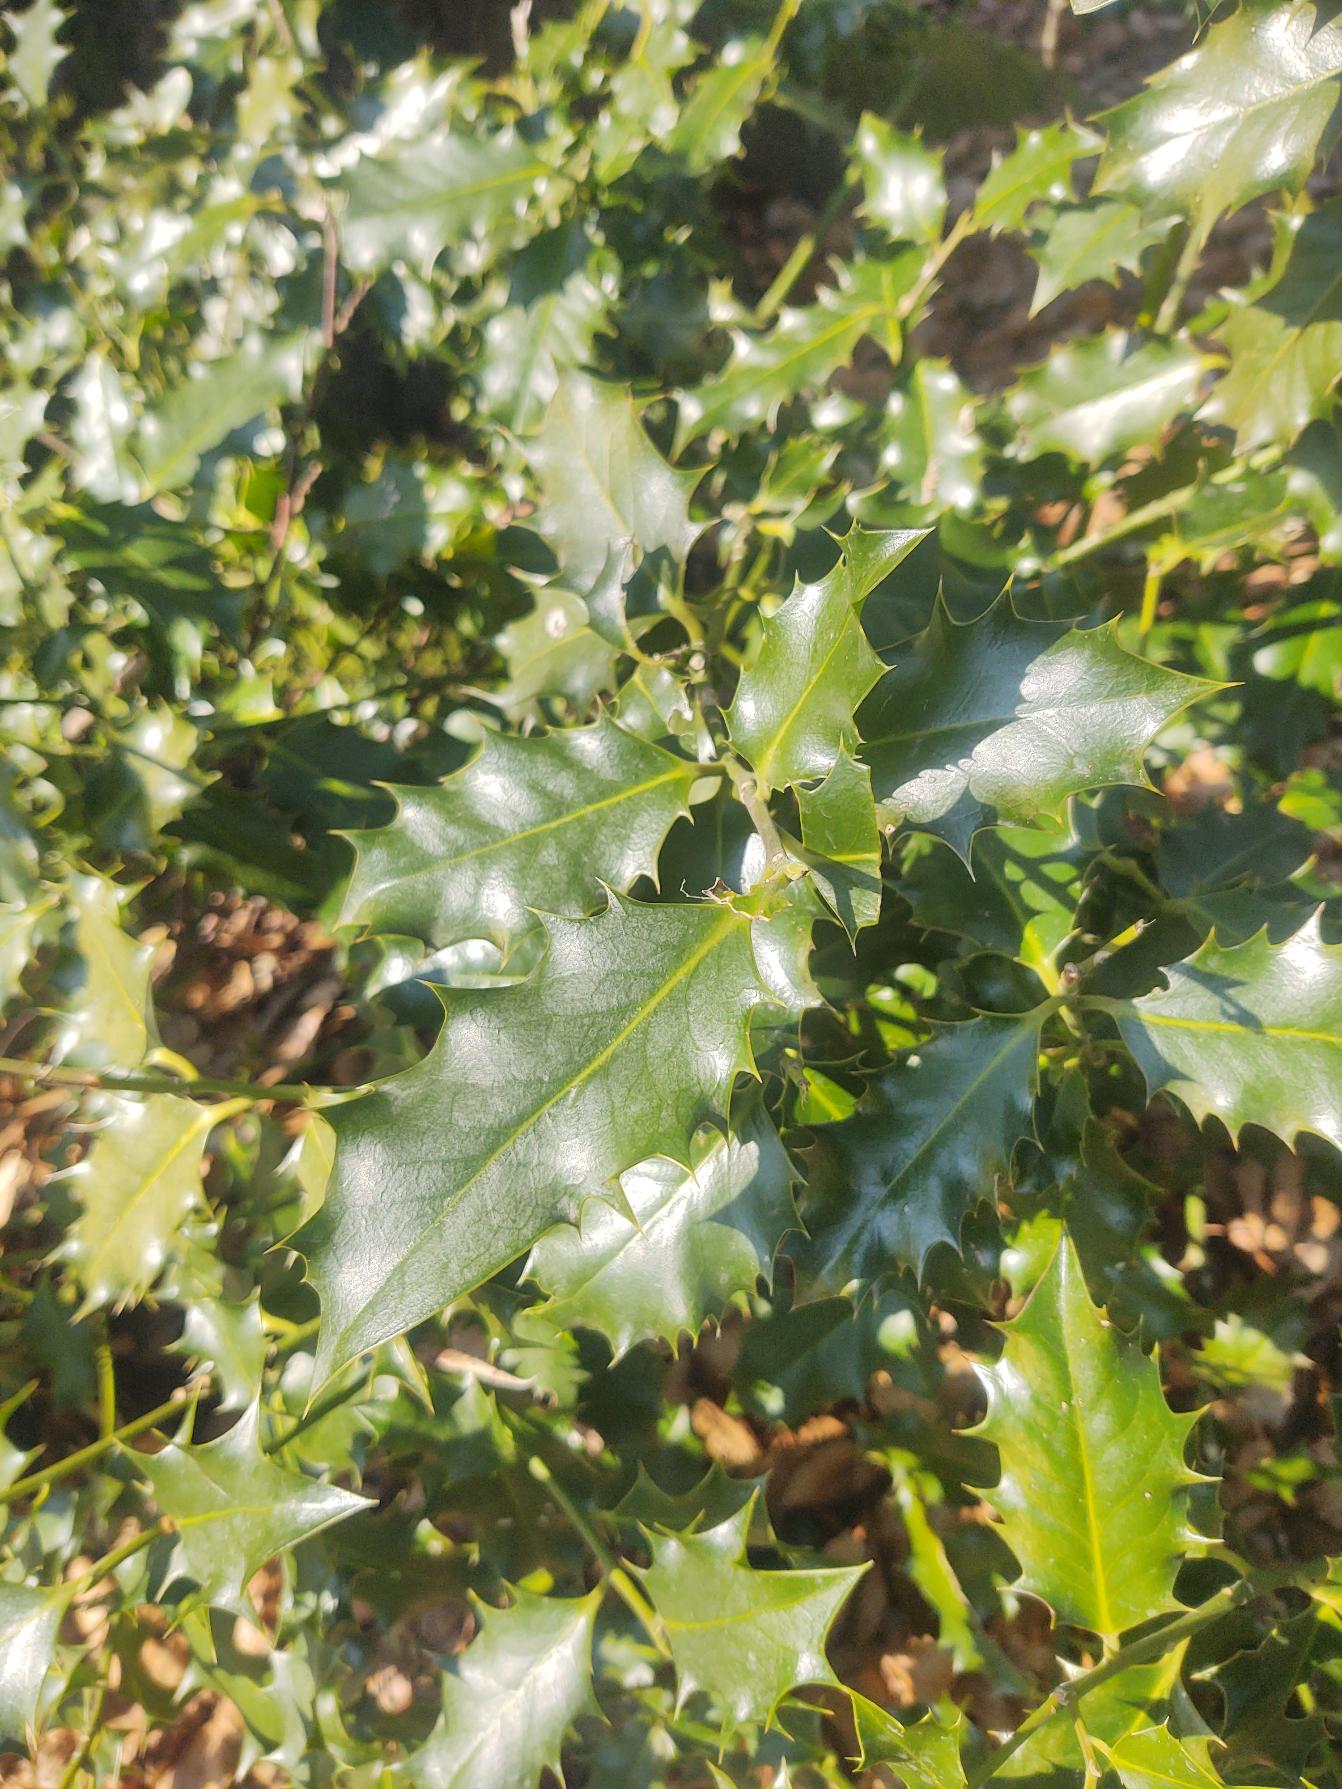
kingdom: Plantae
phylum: Tracheophyta
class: Magnoliopsida
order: Aquifoliales
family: Aquifoliaceae
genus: Ilex
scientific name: Ilex aquifolium
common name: Kristtorn
